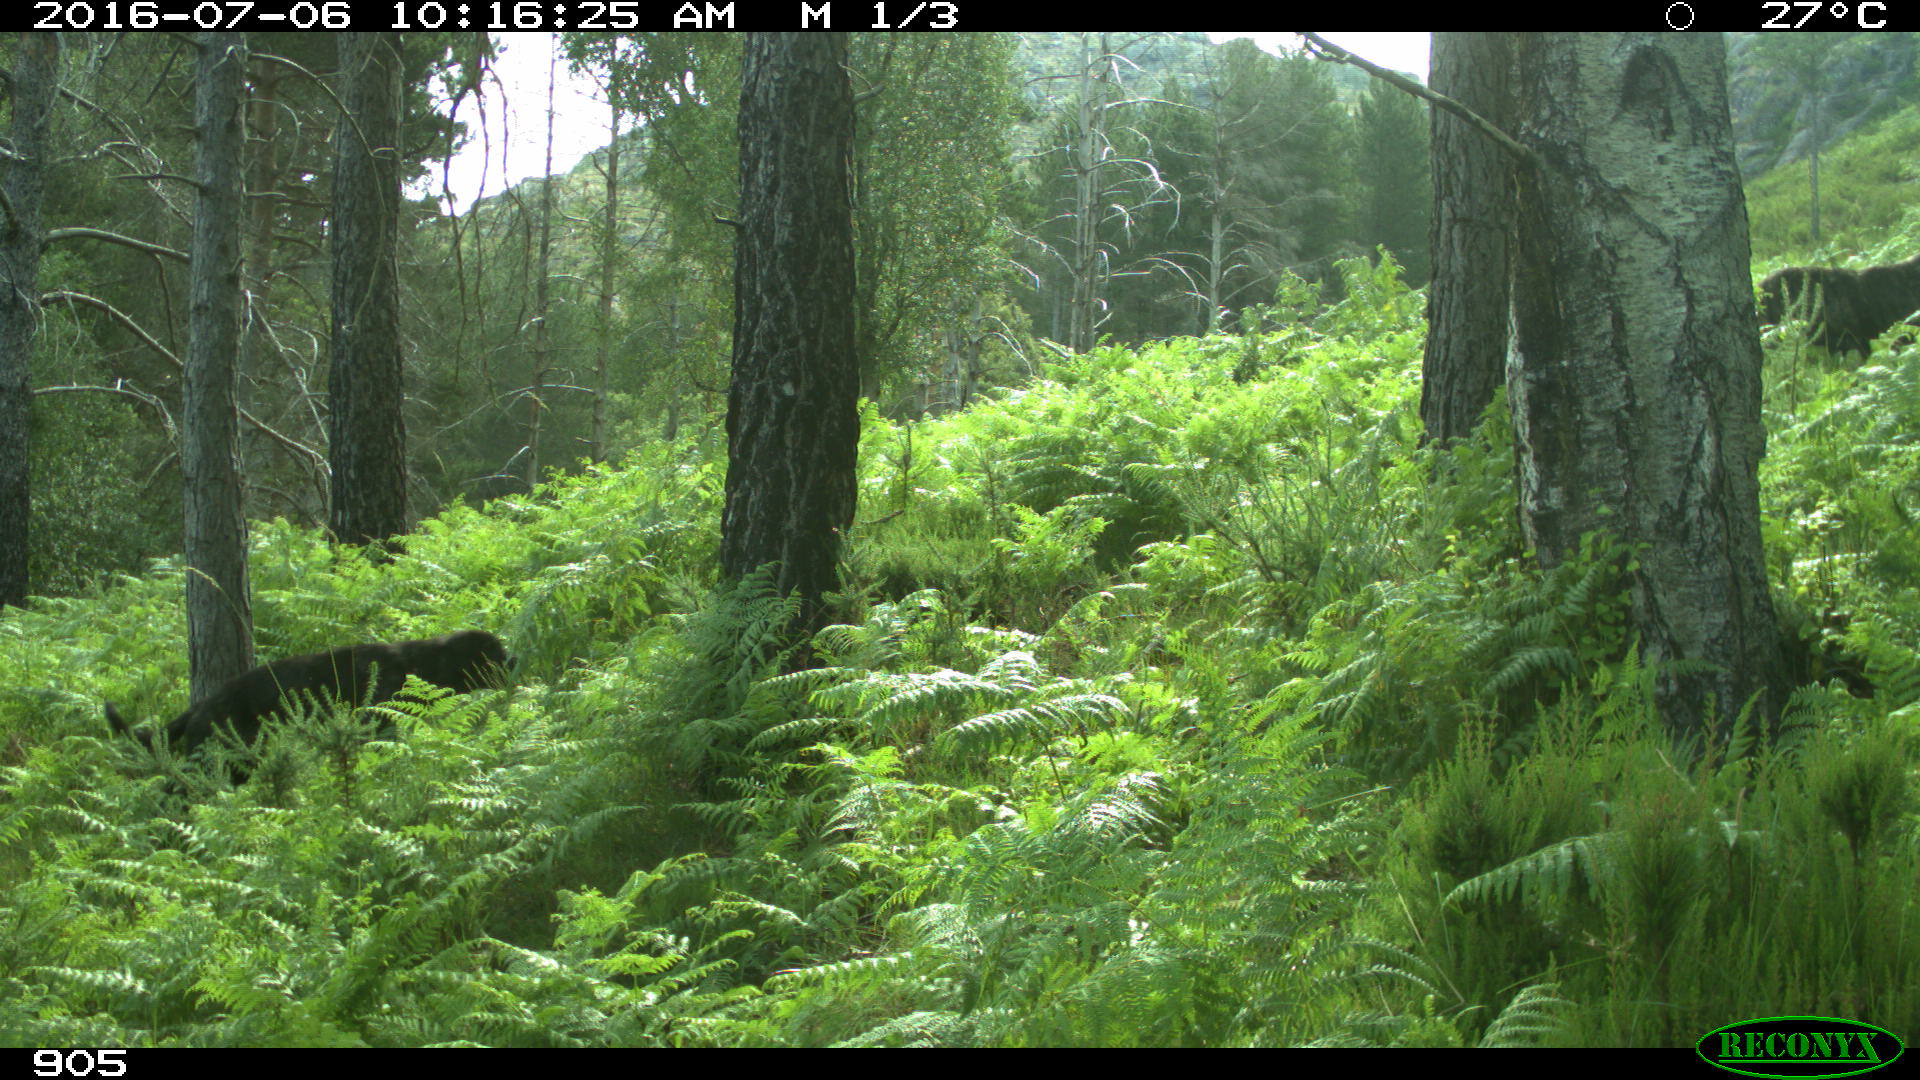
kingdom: Animalia
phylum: Chordata
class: Mammalia
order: Carnivora
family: Canidae
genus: Canis
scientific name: Canis lupus
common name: Gray wolf
